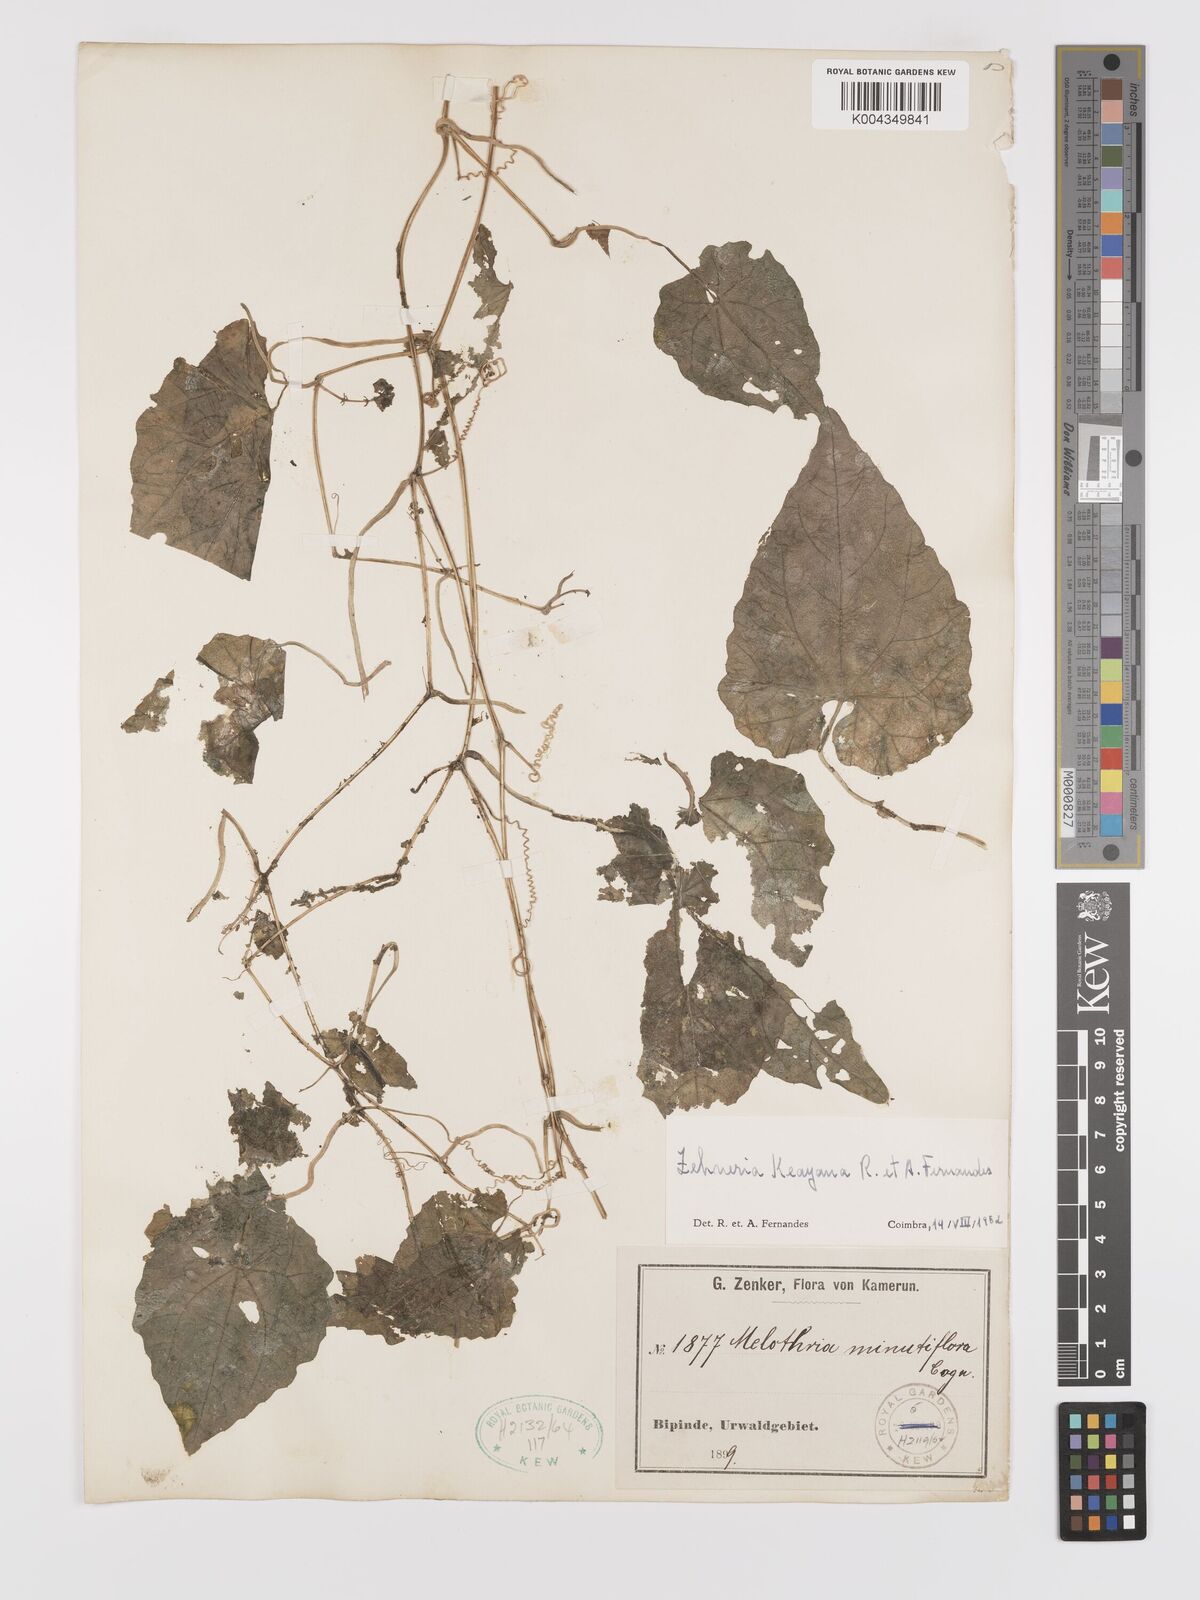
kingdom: Plantae
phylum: Tracheophyta
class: Magnoliopsida
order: Cucurbitales
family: Cucurbitaceae
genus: Zehneria
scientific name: Zehneria keayana
